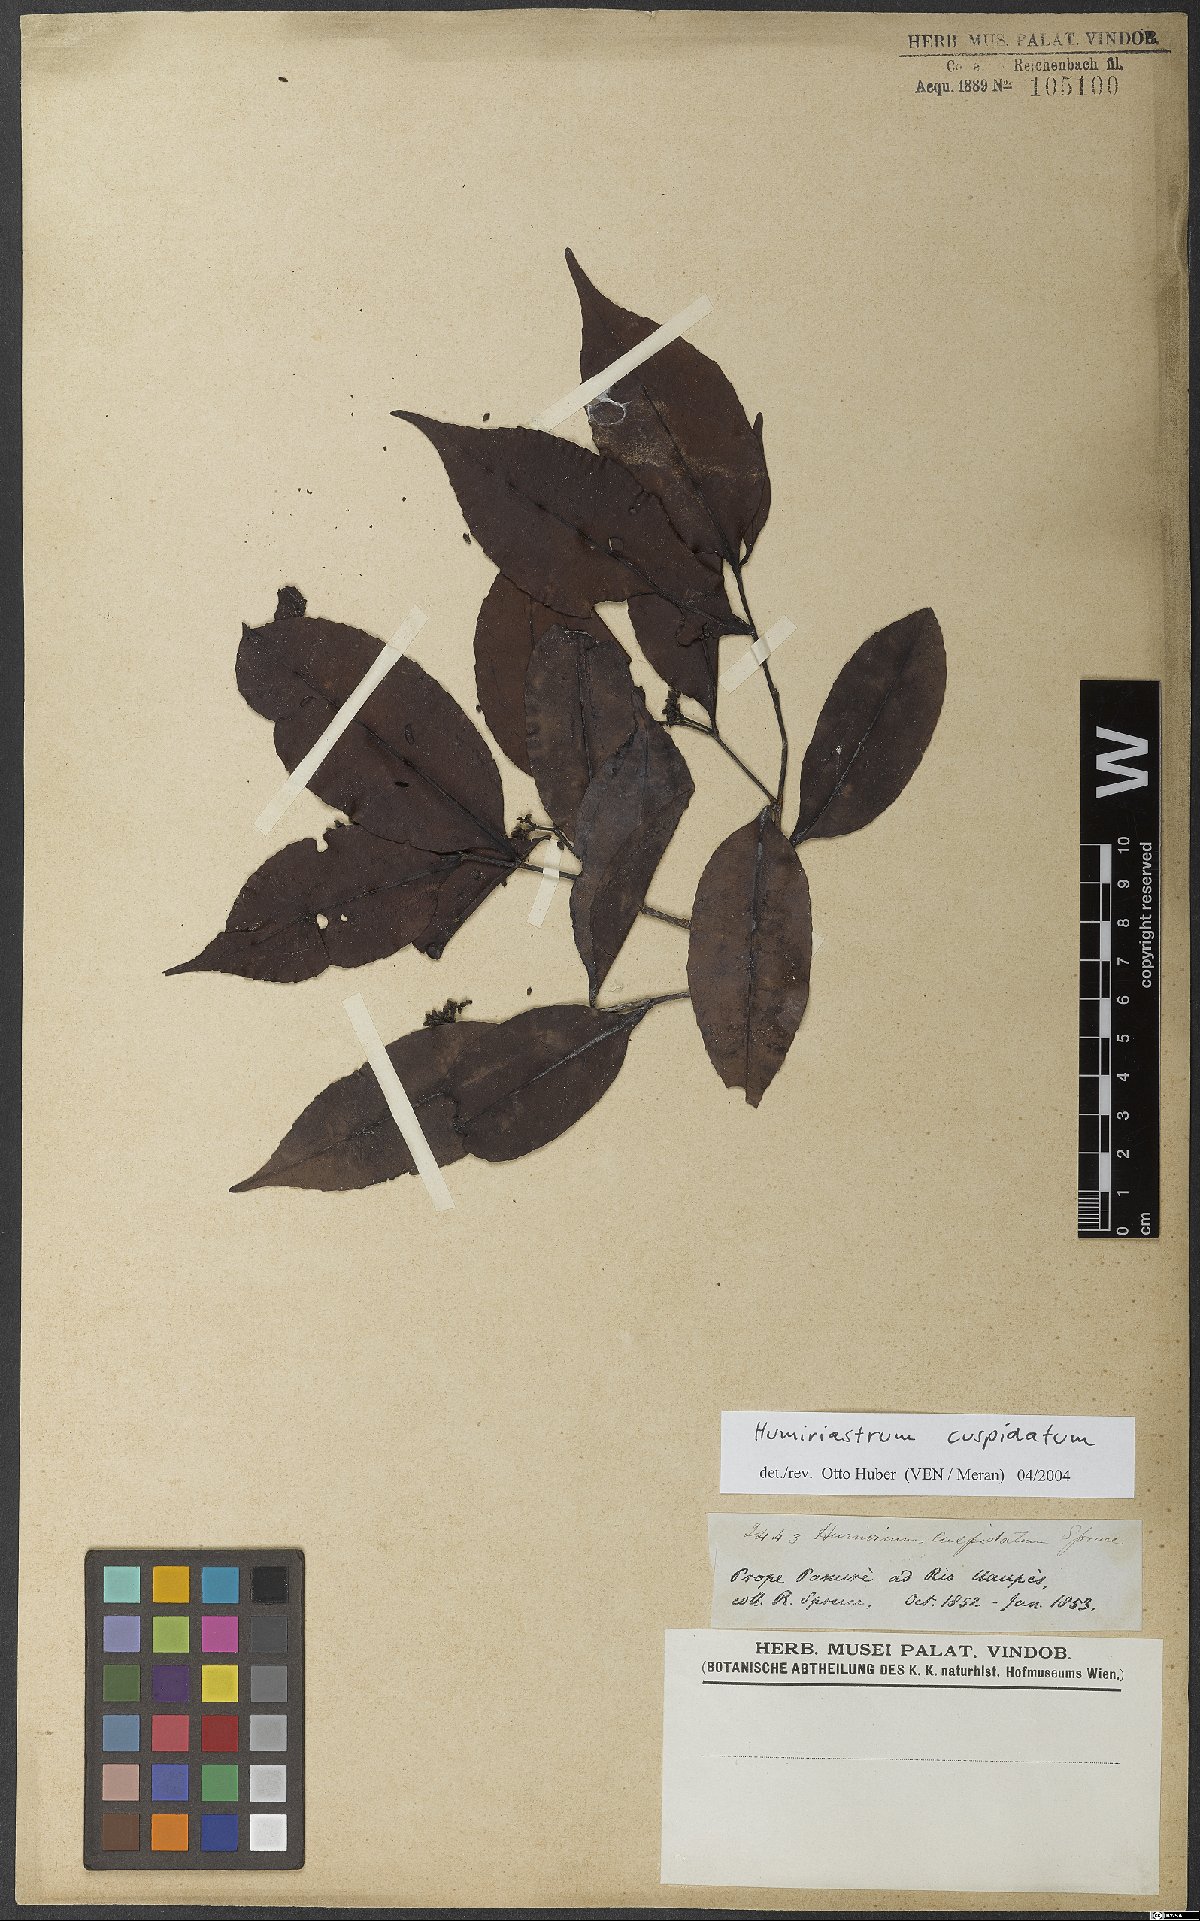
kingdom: Plantae
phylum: Tracheophyta
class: Magnoliopsida
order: Malpighiales
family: Humiriaceae
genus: Humiriastrum
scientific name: Humiriastrum cuspidatum
